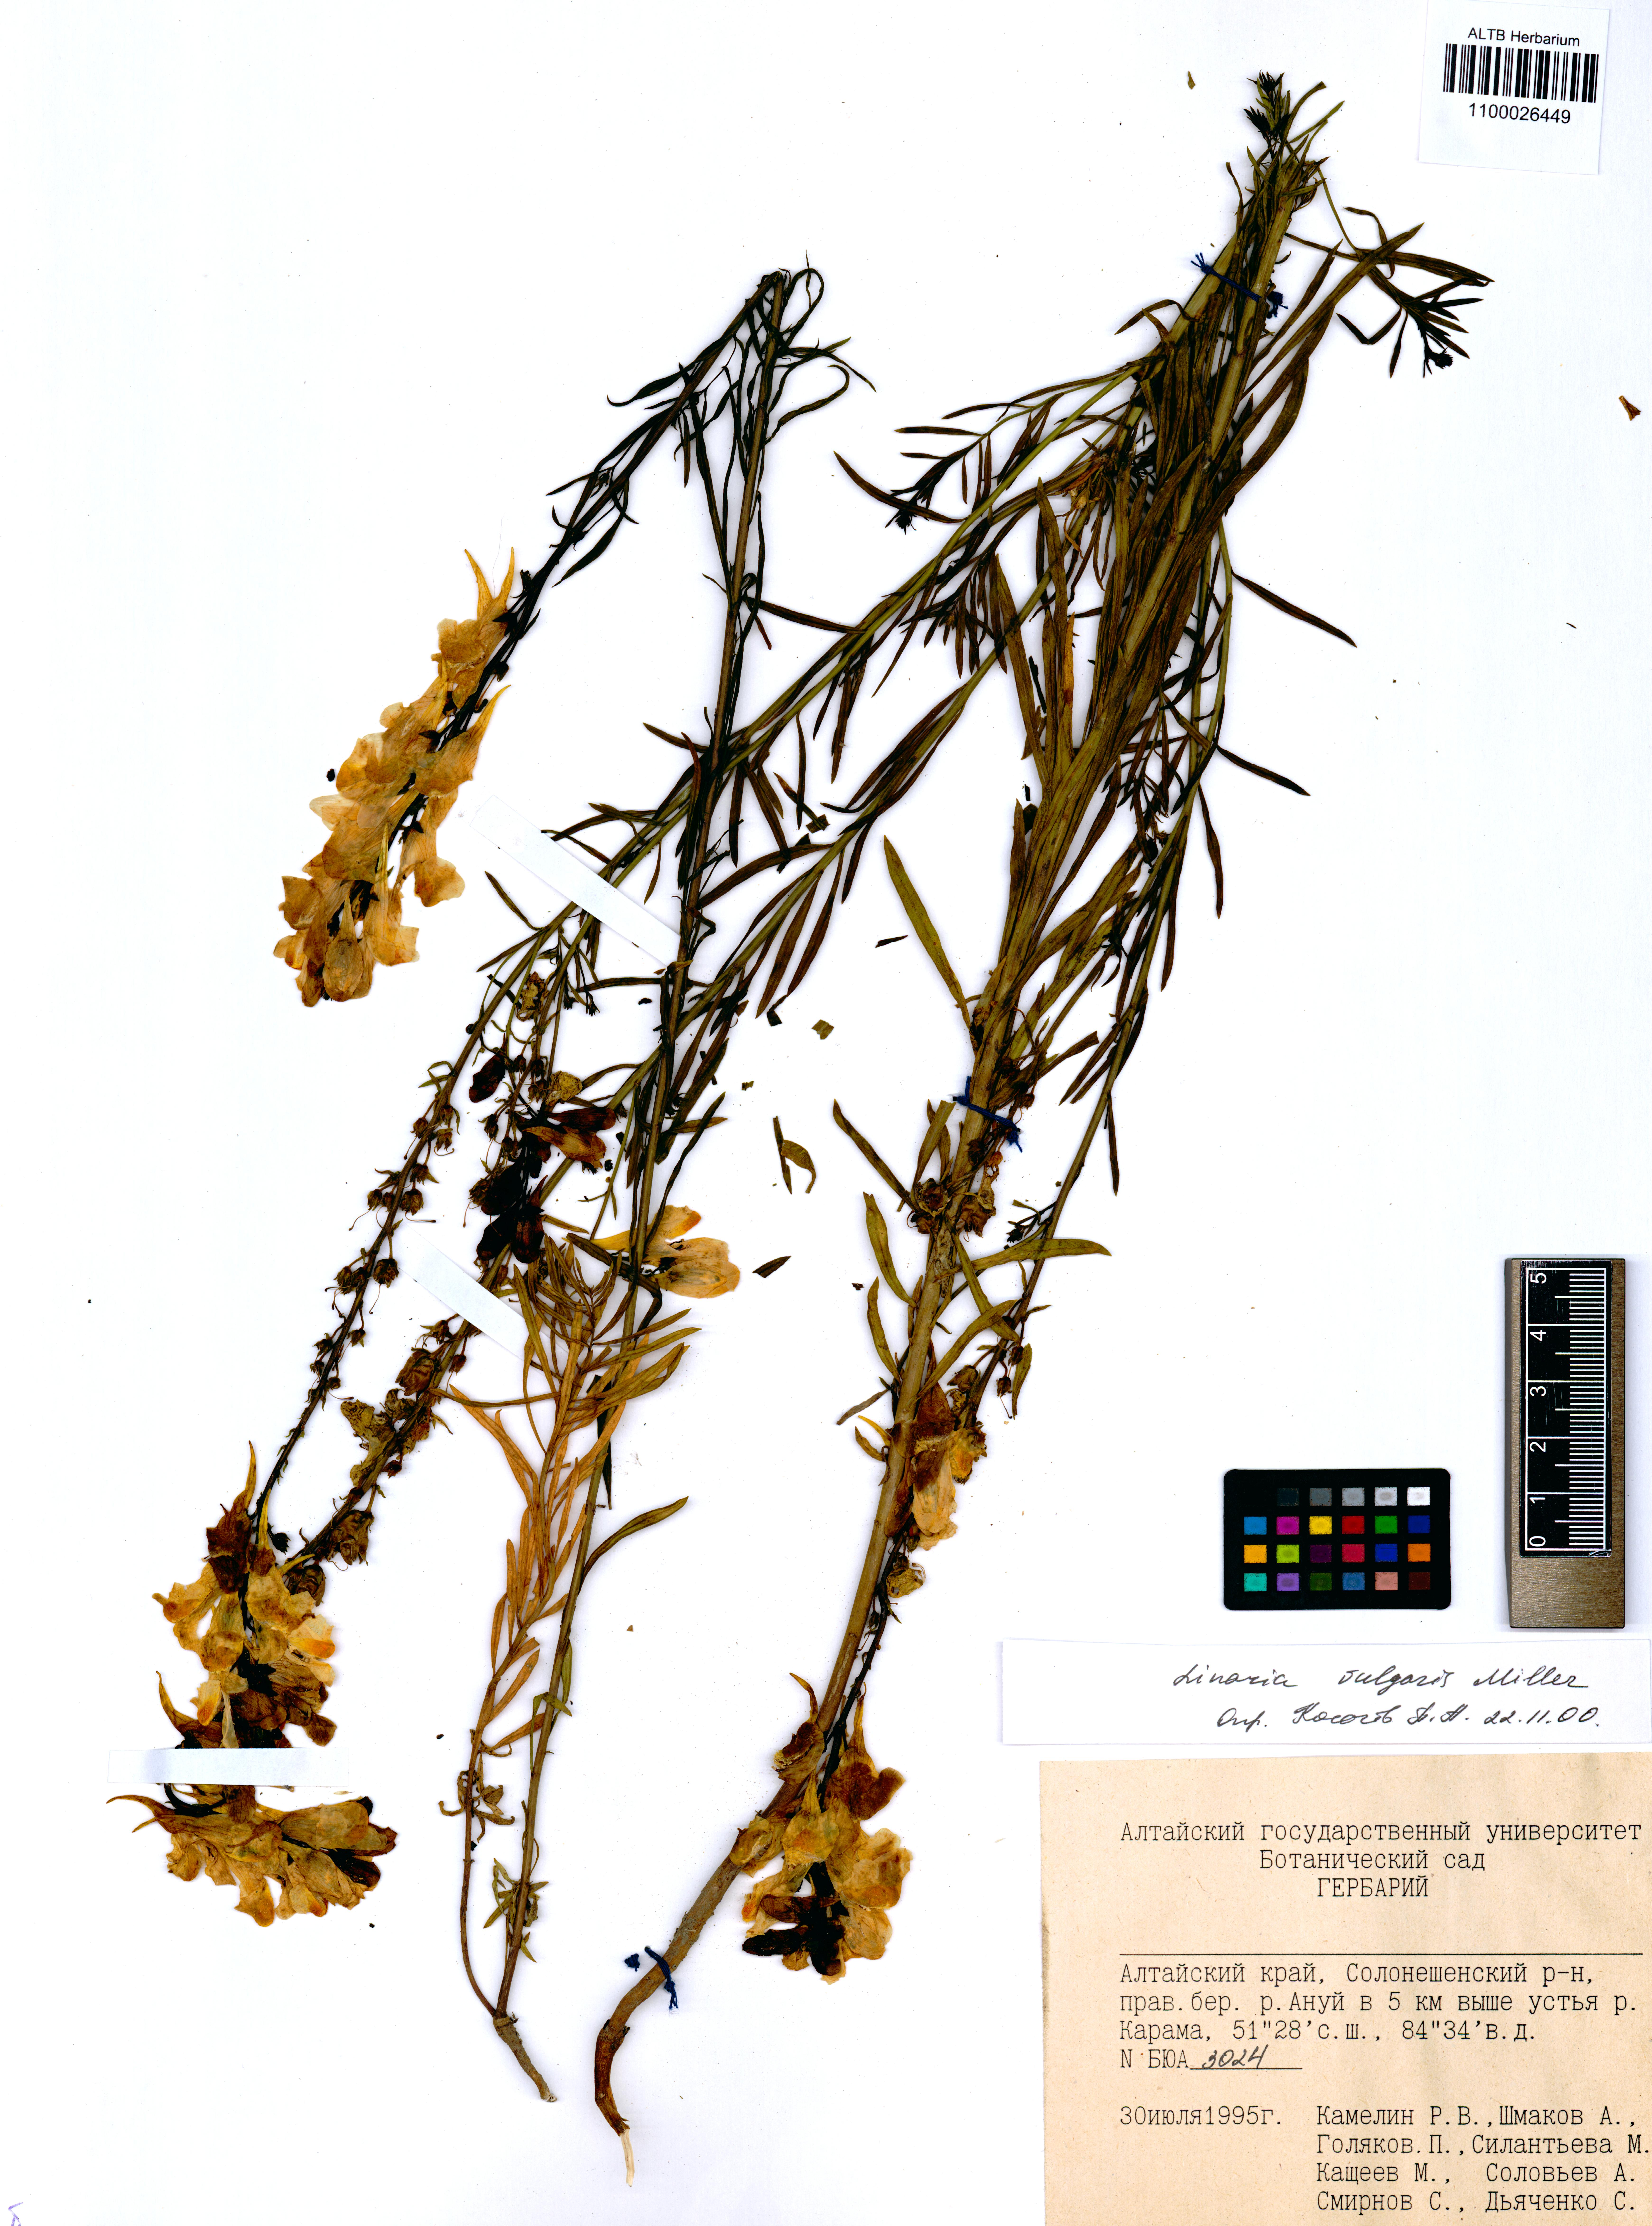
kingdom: Plantae
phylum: Tracheophyta
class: Magnoliopsida
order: Lamiales
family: Plantaginaceae
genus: Linaria
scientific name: Linaria vulgaris
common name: Butter and eggs
